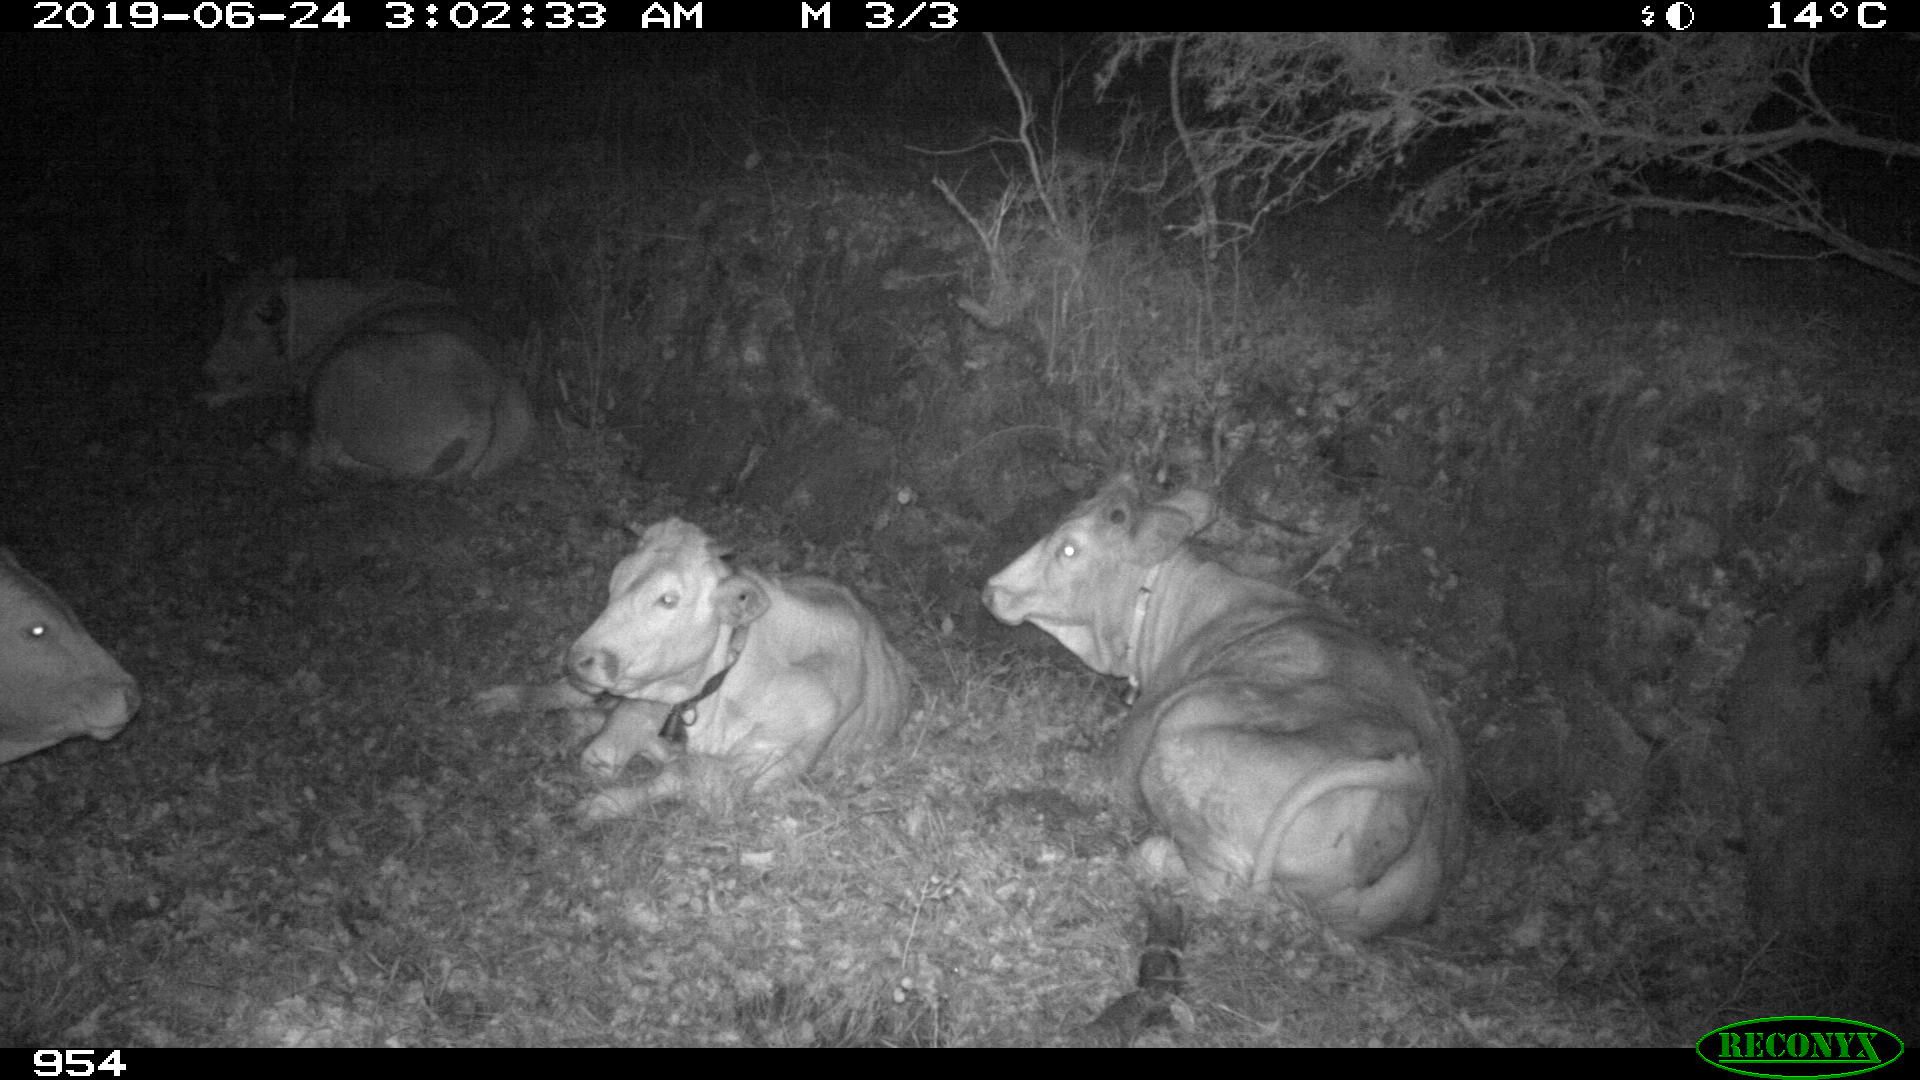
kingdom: Animalia
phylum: Chordata
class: Mammalia
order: Artiodactyla
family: Bovidae
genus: Bos
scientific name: Bos taurus
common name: Domesticated cattle
